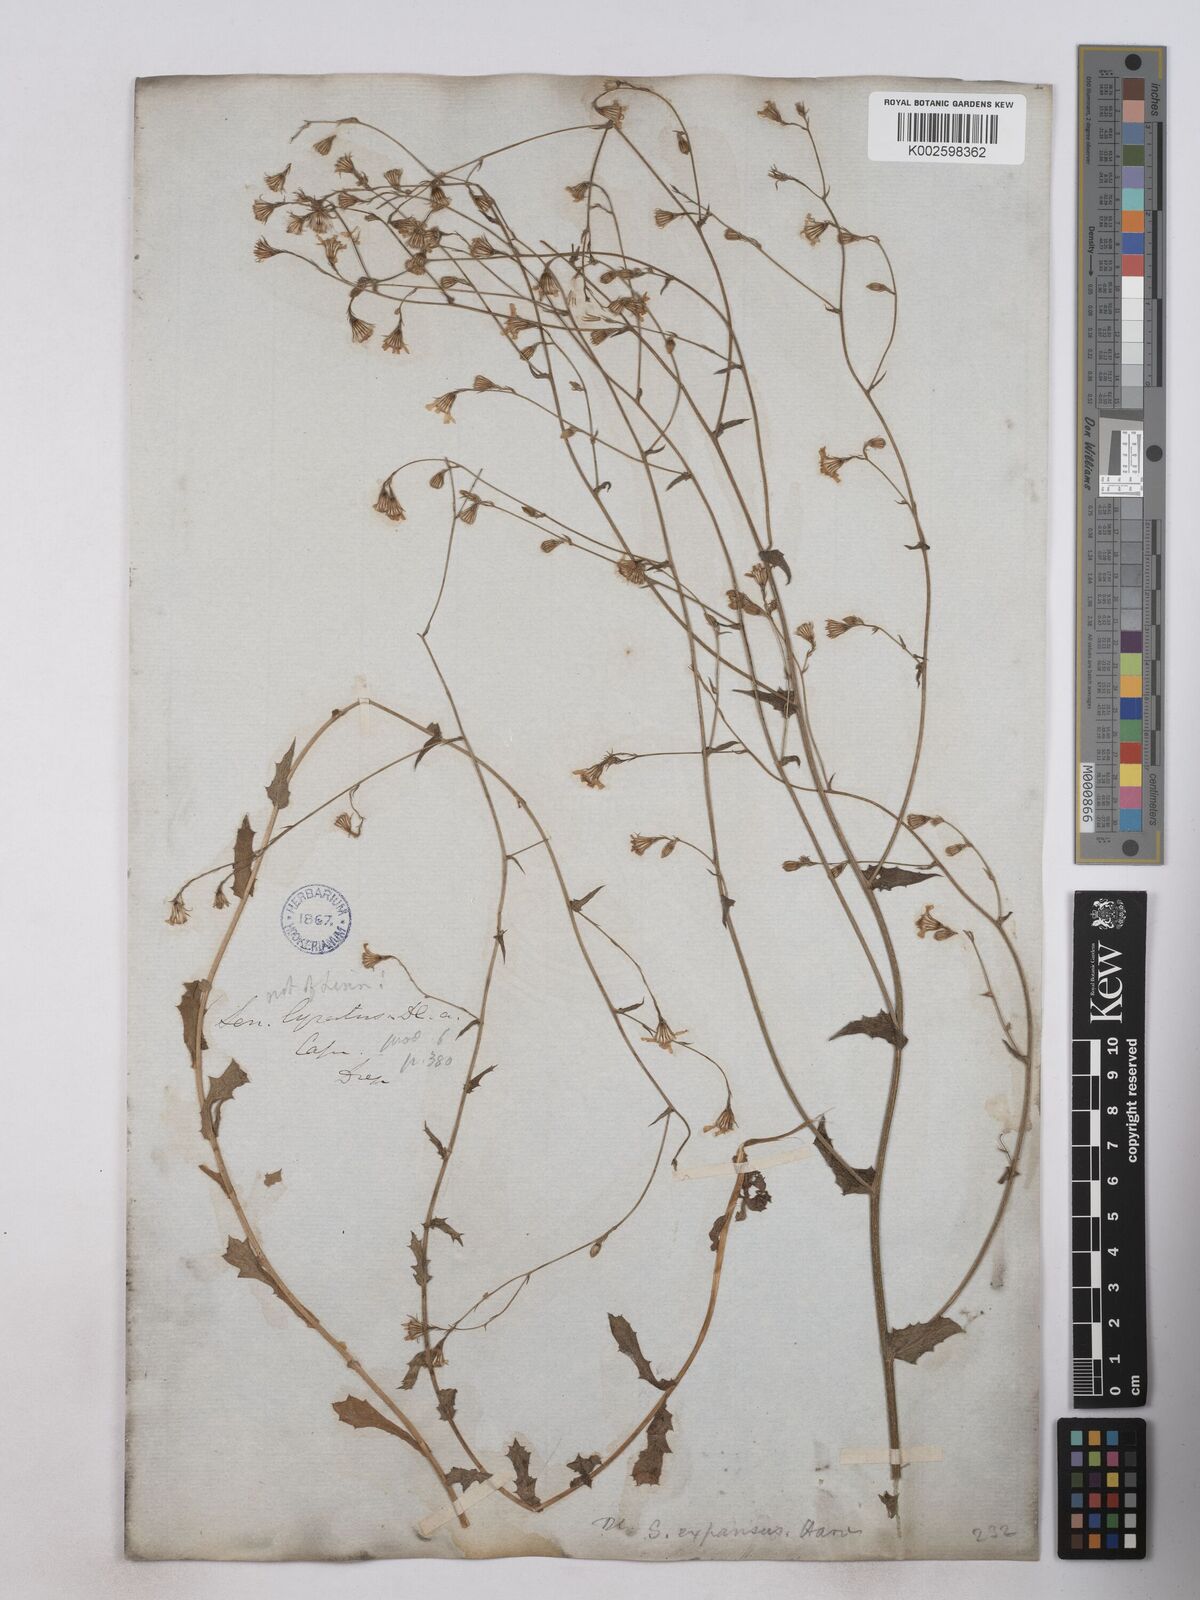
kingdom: Plantae
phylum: Tracheophyta
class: Magnoliopsida
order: Asterales
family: Asteraceae
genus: Senecio
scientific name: Senecio anapetes
